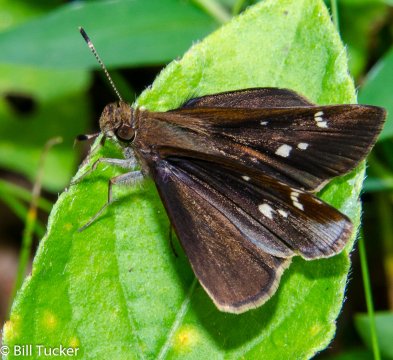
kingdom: Animalia
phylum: Arthropoda
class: Insecta
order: Lepidoptera
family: Hesperiidae
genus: Lerema
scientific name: Lerema accius
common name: Clouded Skipper
